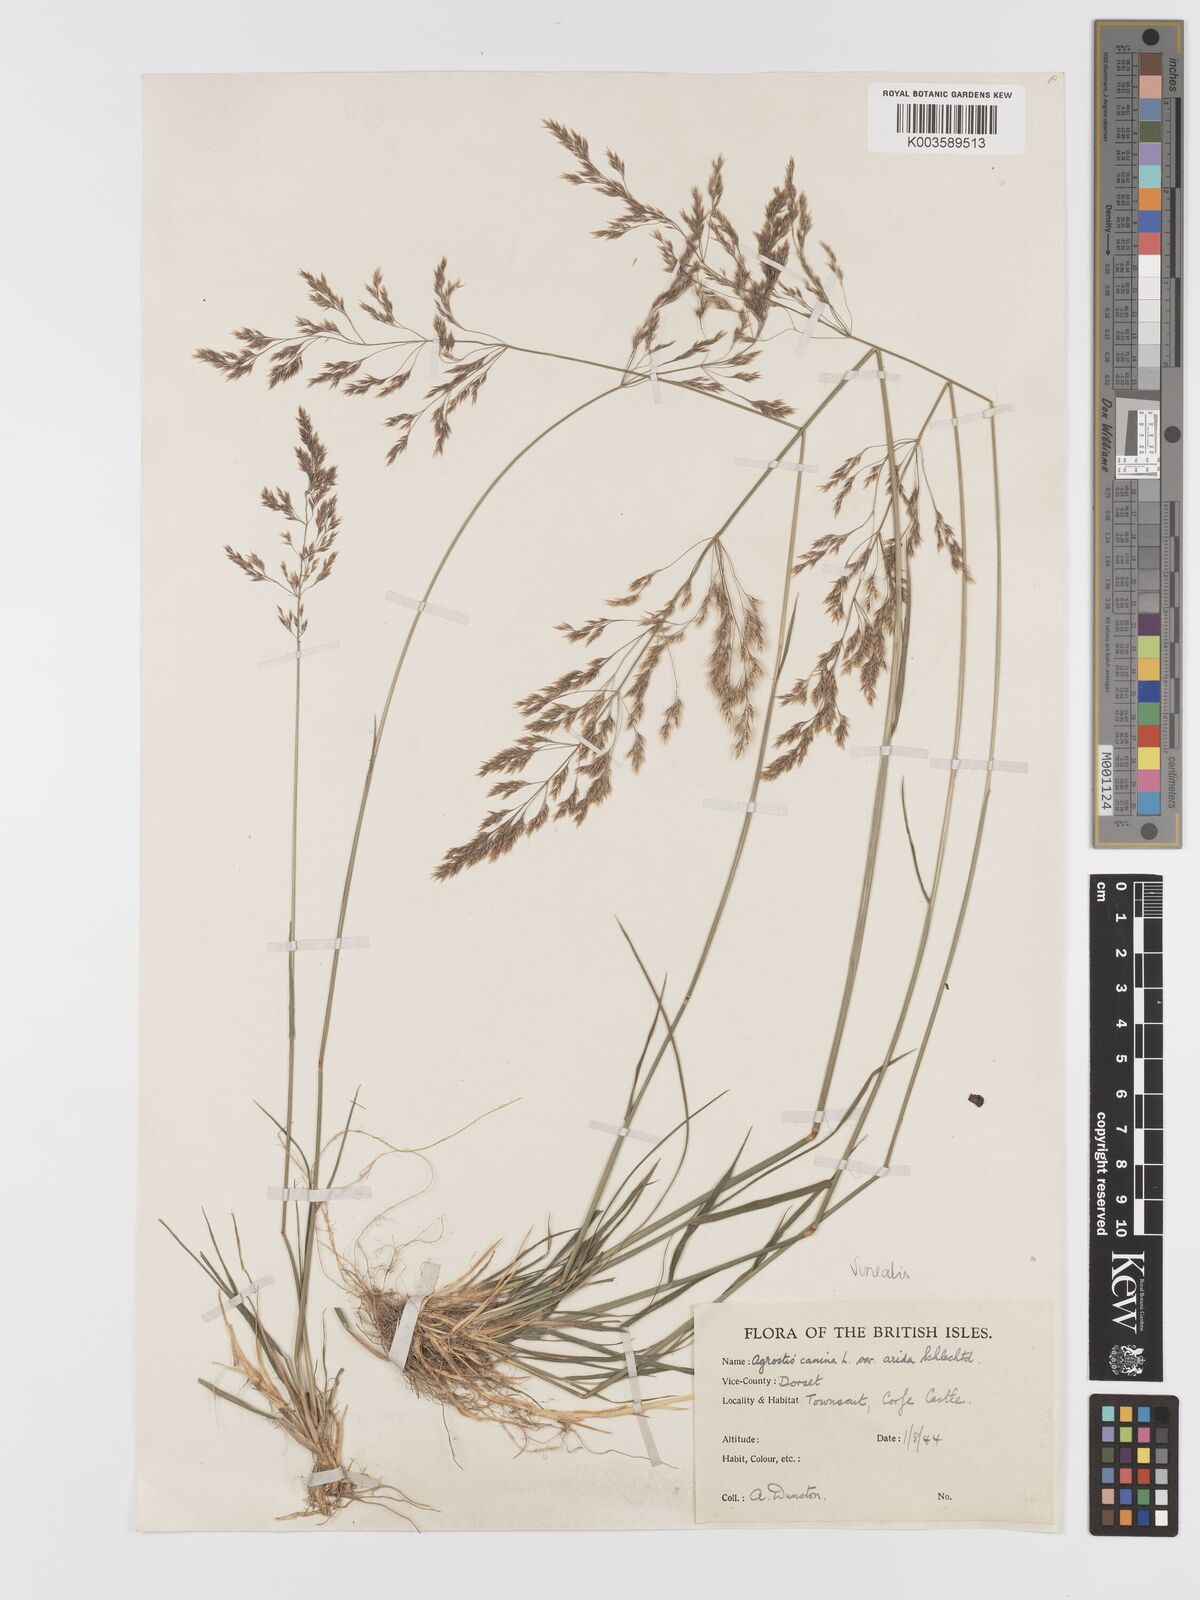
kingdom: Plantae
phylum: Tracheophyta
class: Liliopsida
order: Poales
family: Poaceae
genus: Agrostis
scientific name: Agrostis
